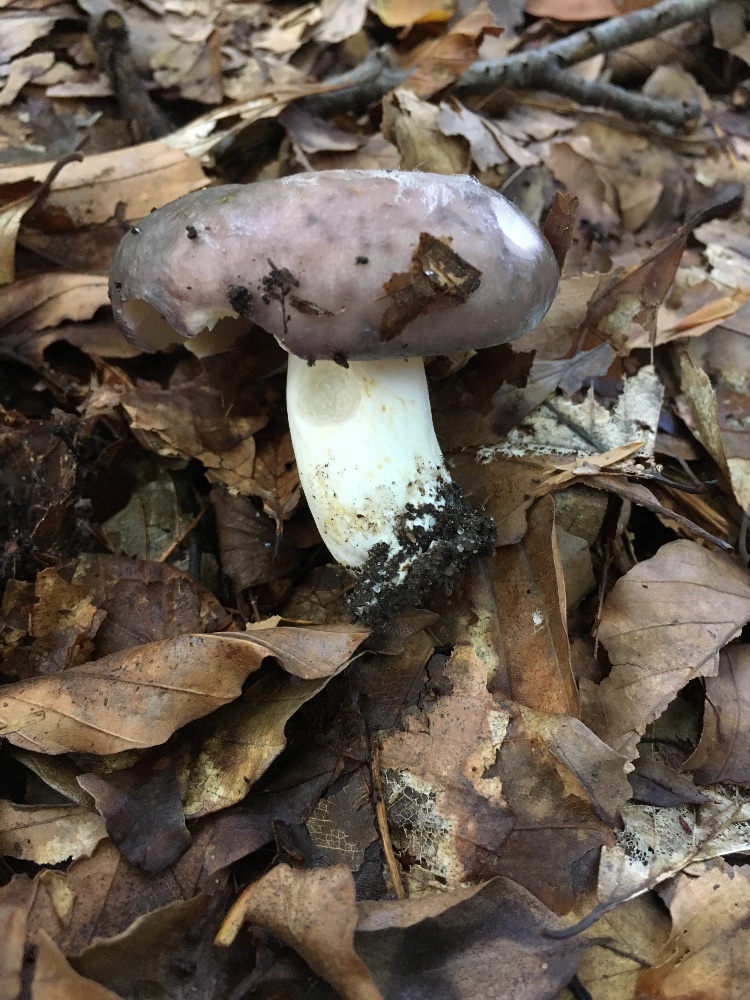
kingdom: Fungi
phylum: Basidiomycota
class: Agaricomycetes
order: Russulales
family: Russulaceae
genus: Russula
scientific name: Russula cyanoxantha
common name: broget skørhat
